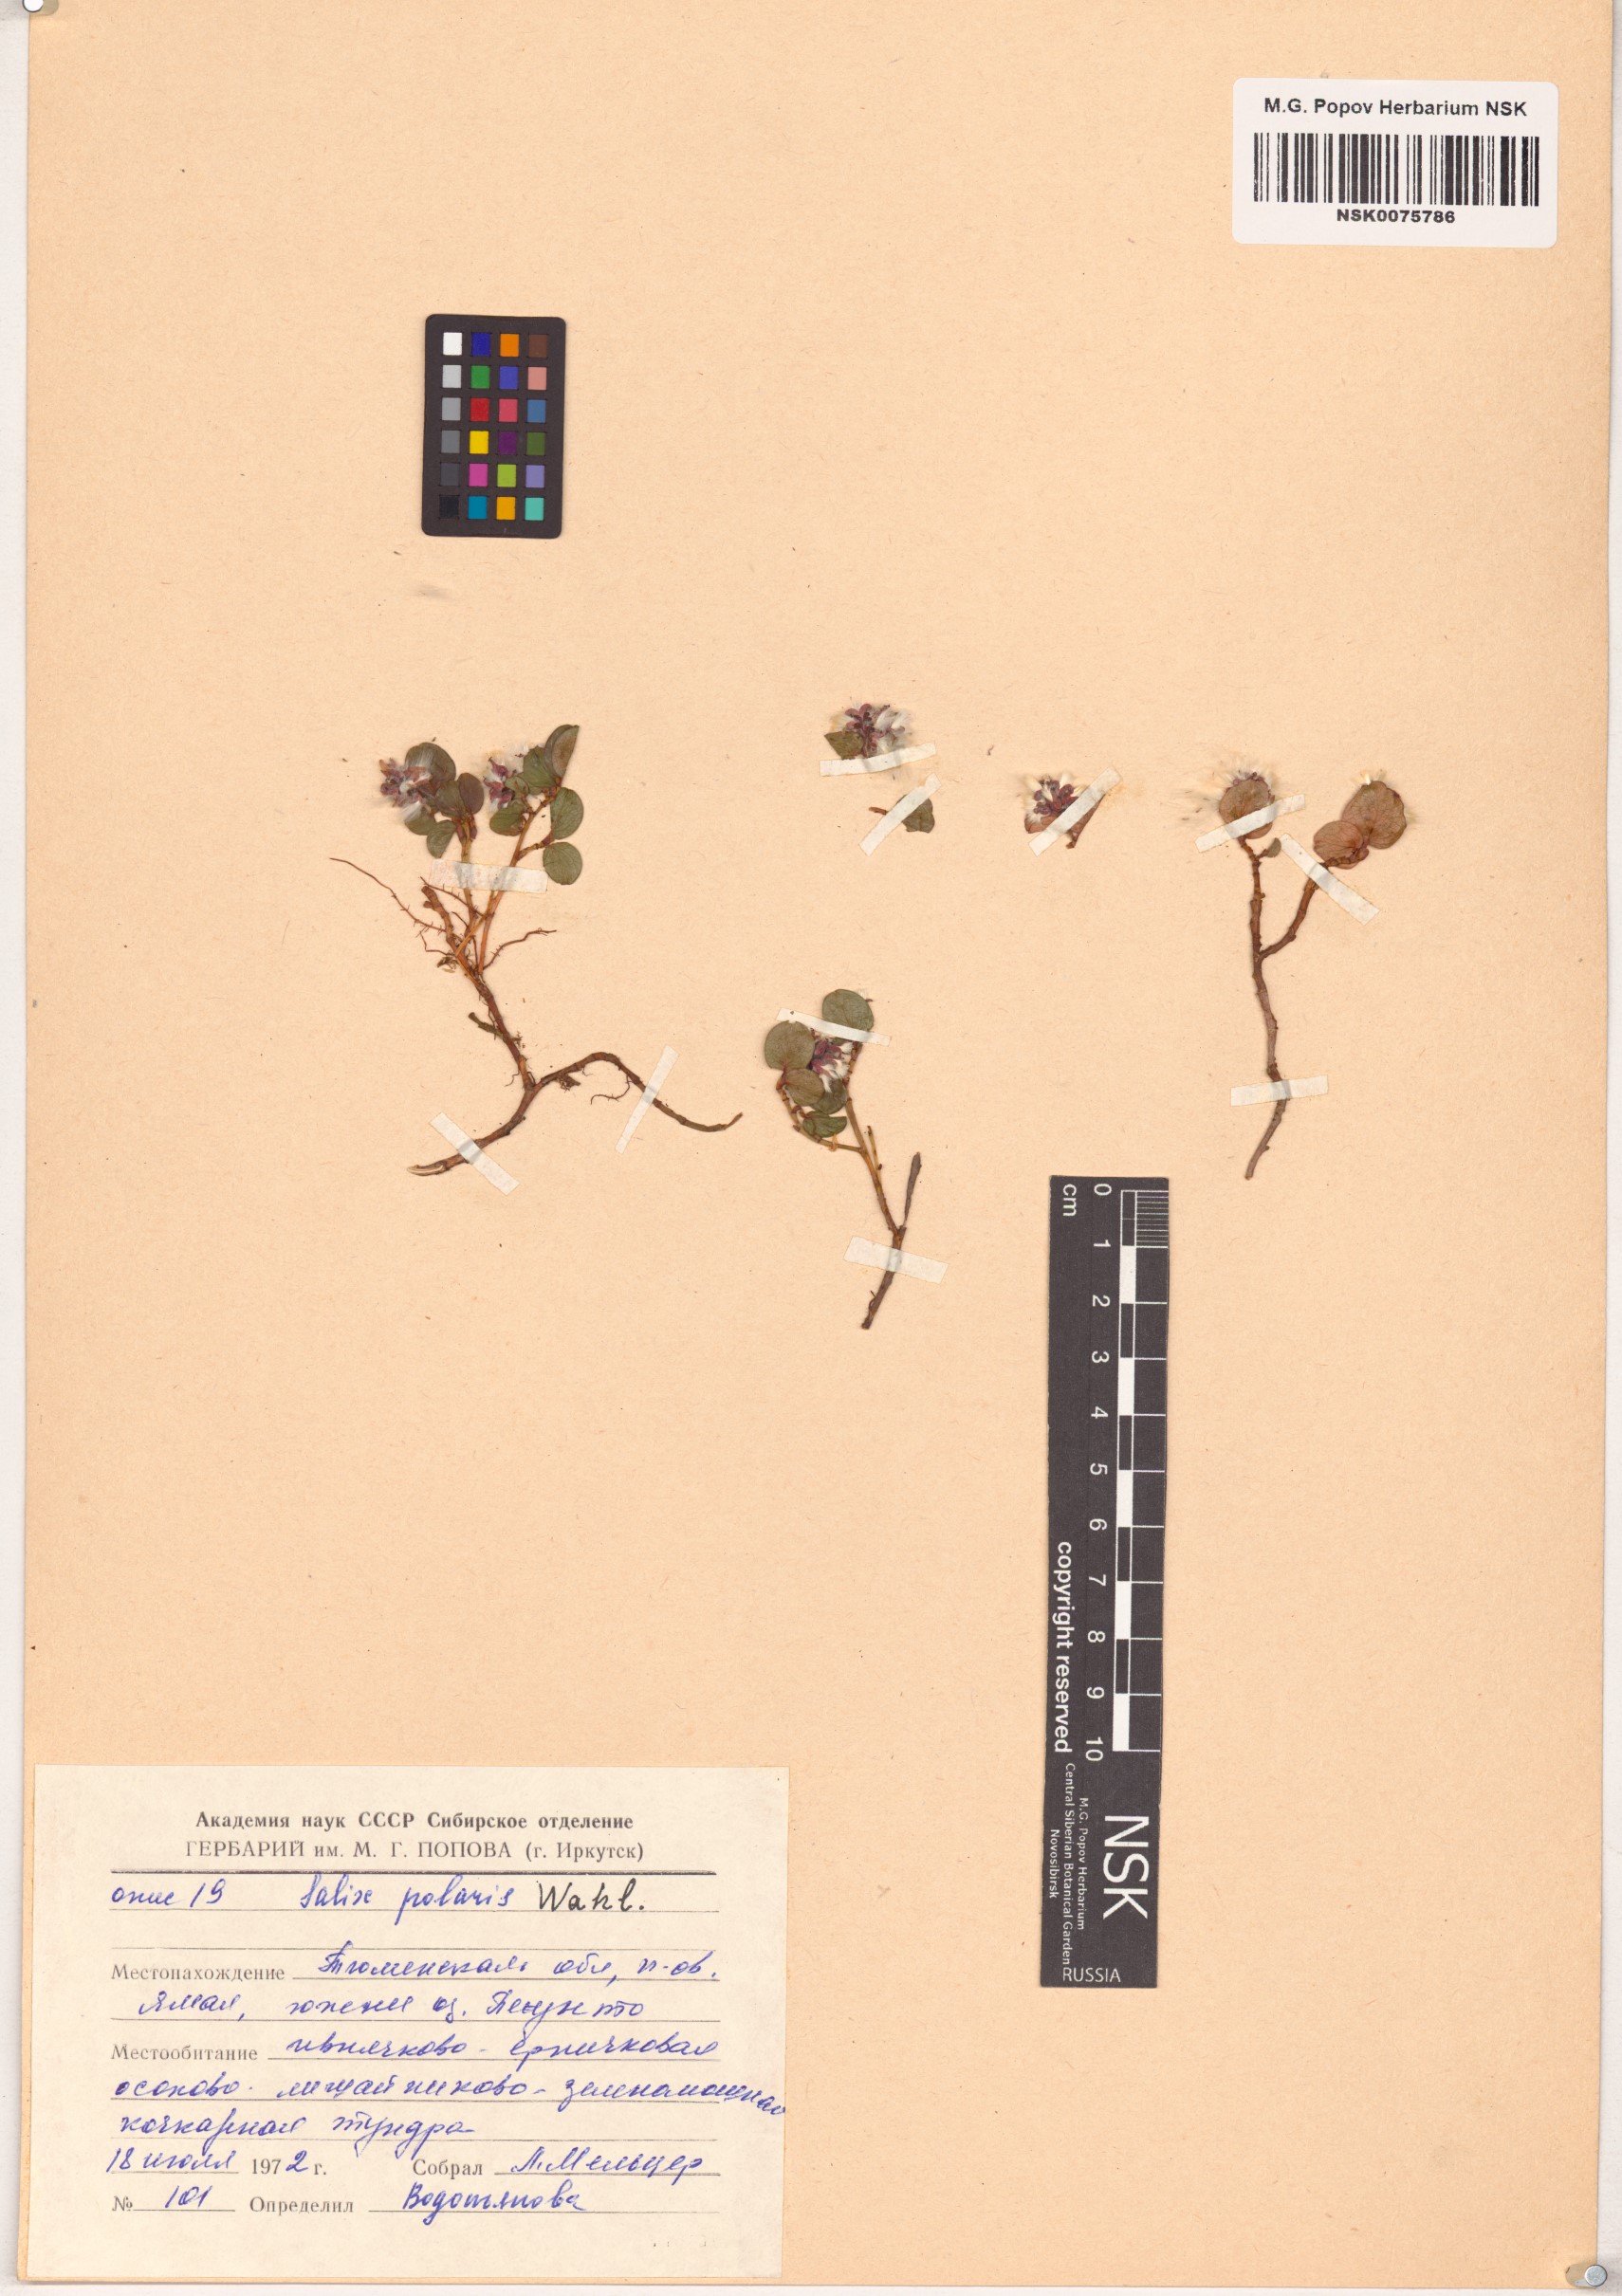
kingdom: Plantae
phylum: Tracheophyta
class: Magnoliopsida
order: Malpighiales
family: Salicaceae
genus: Salix
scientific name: Salix polaris
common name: Polar willow
